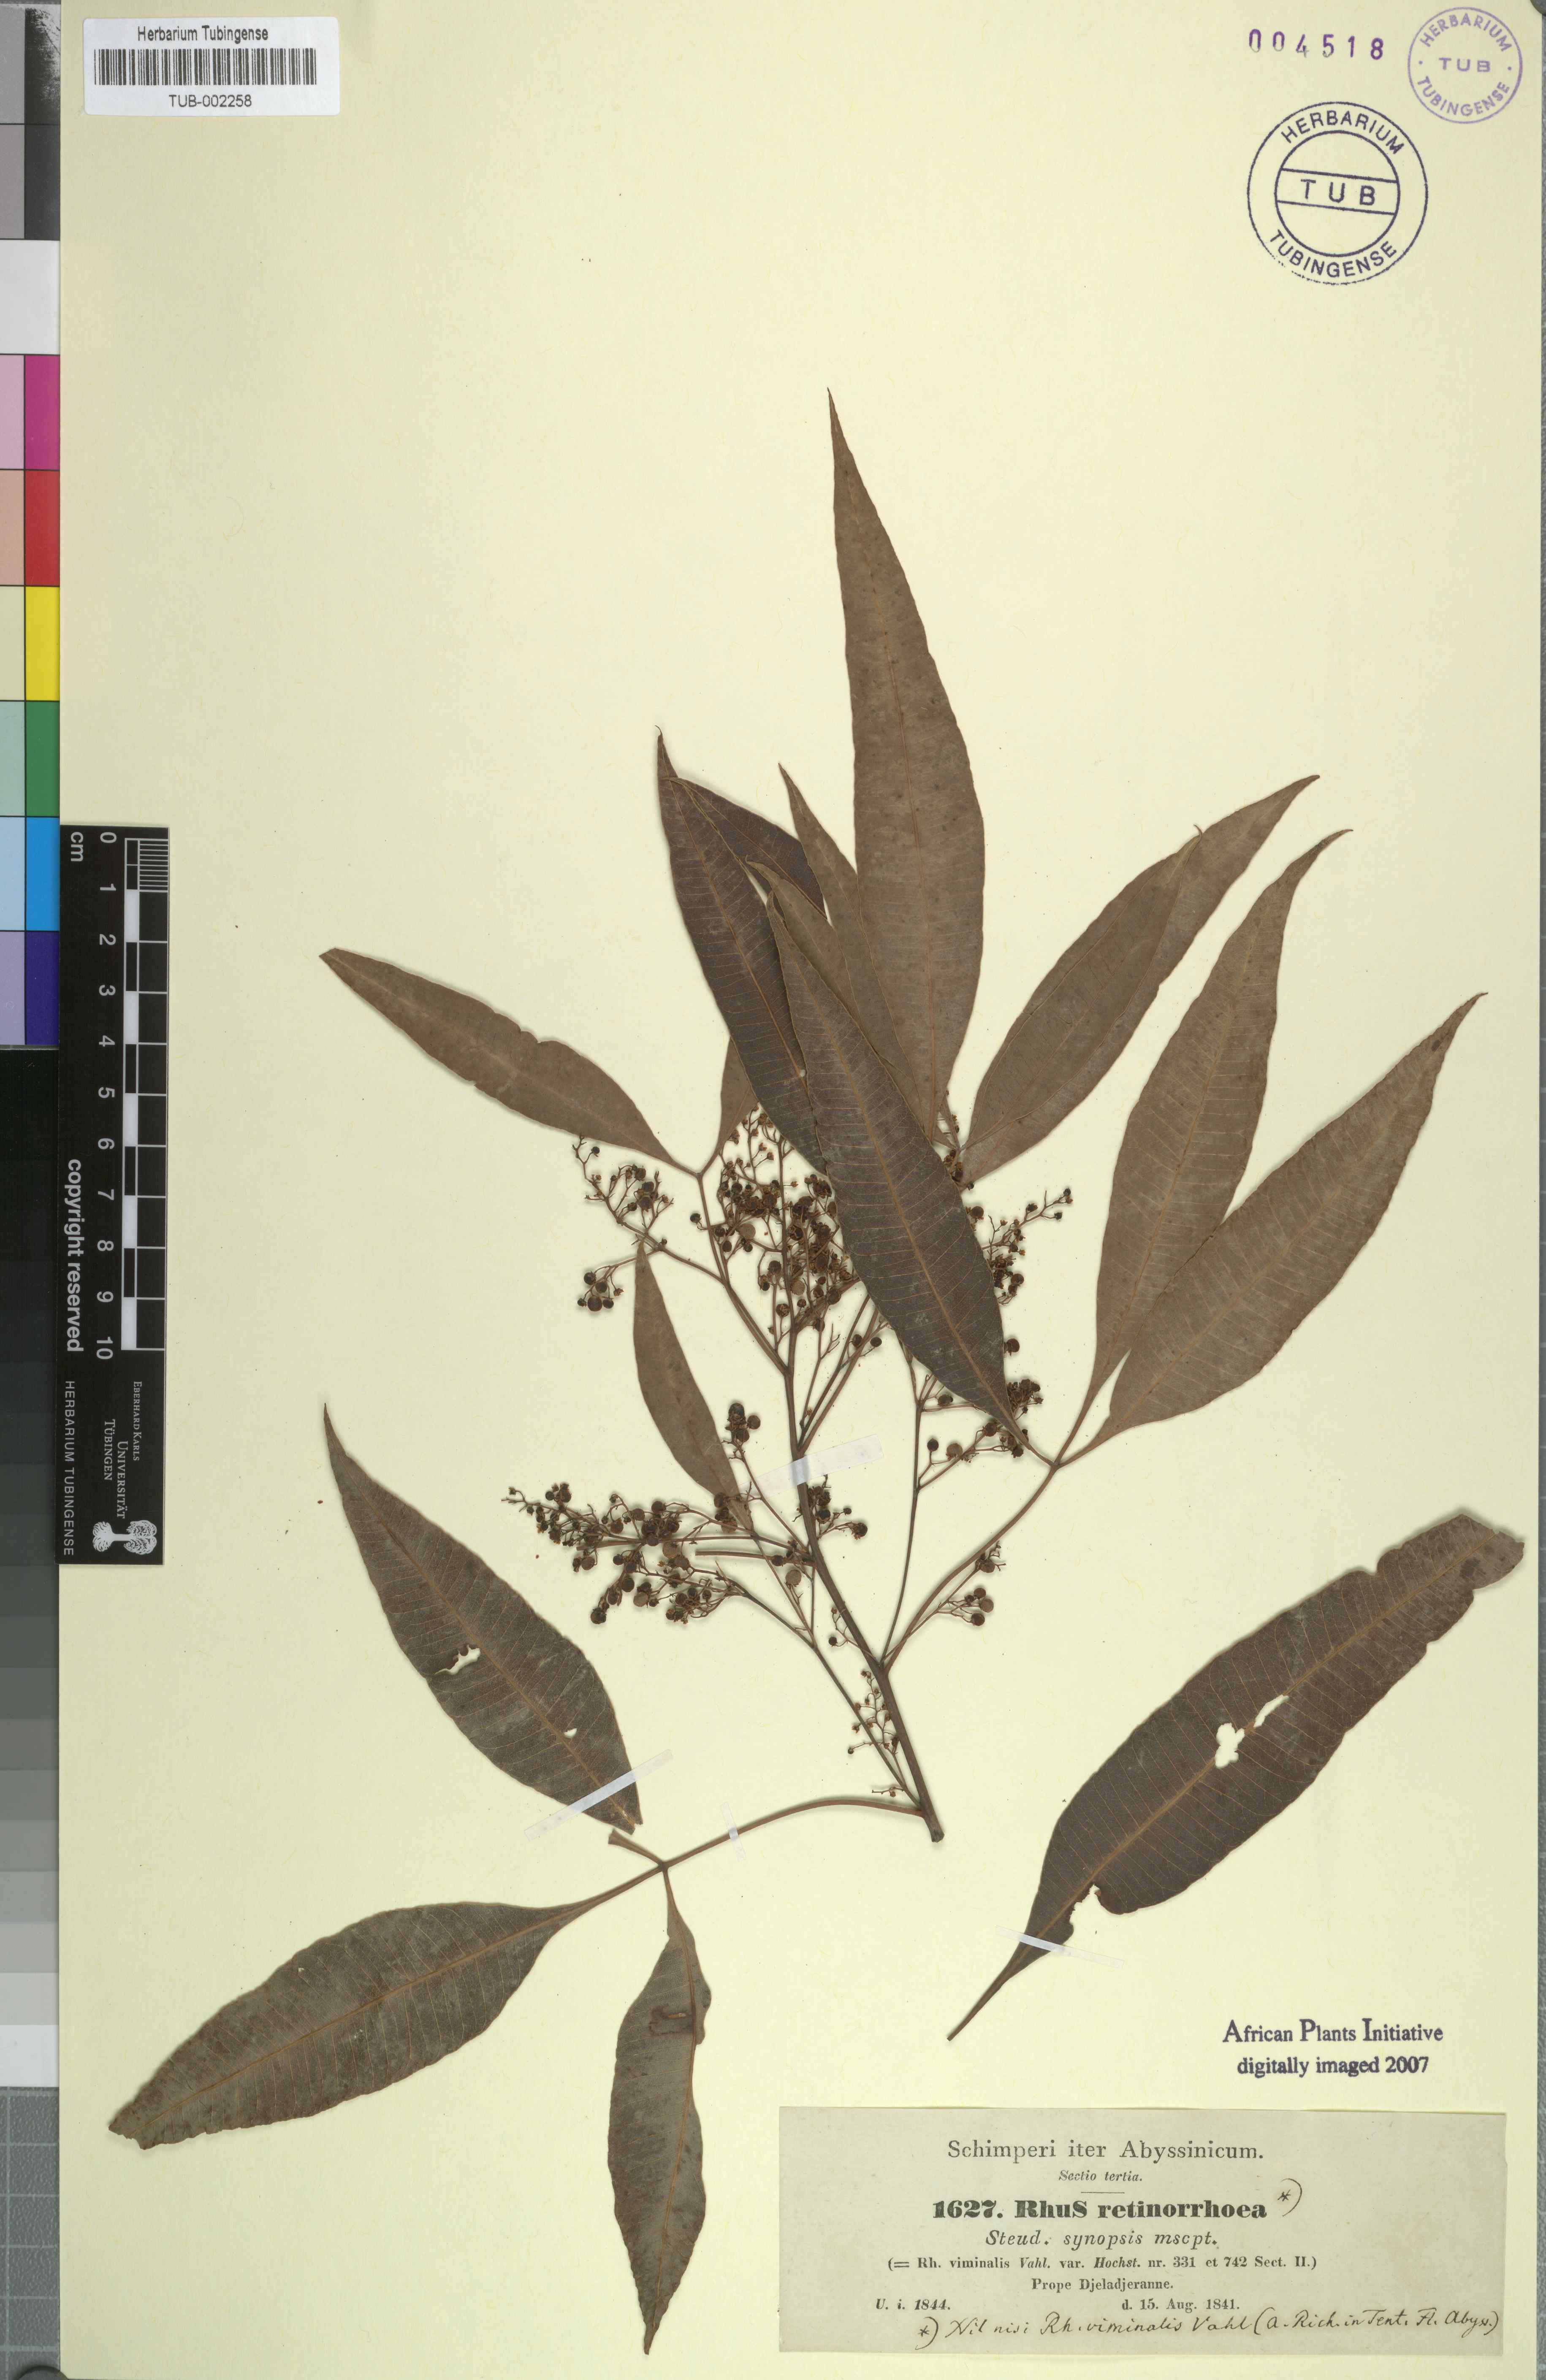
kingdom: Plantae
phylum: Tracheophyta
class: Magnoliopsida
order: Sapindales
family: Anacardiaceae
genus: Rhus
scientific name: Rhus retinorrhaea
